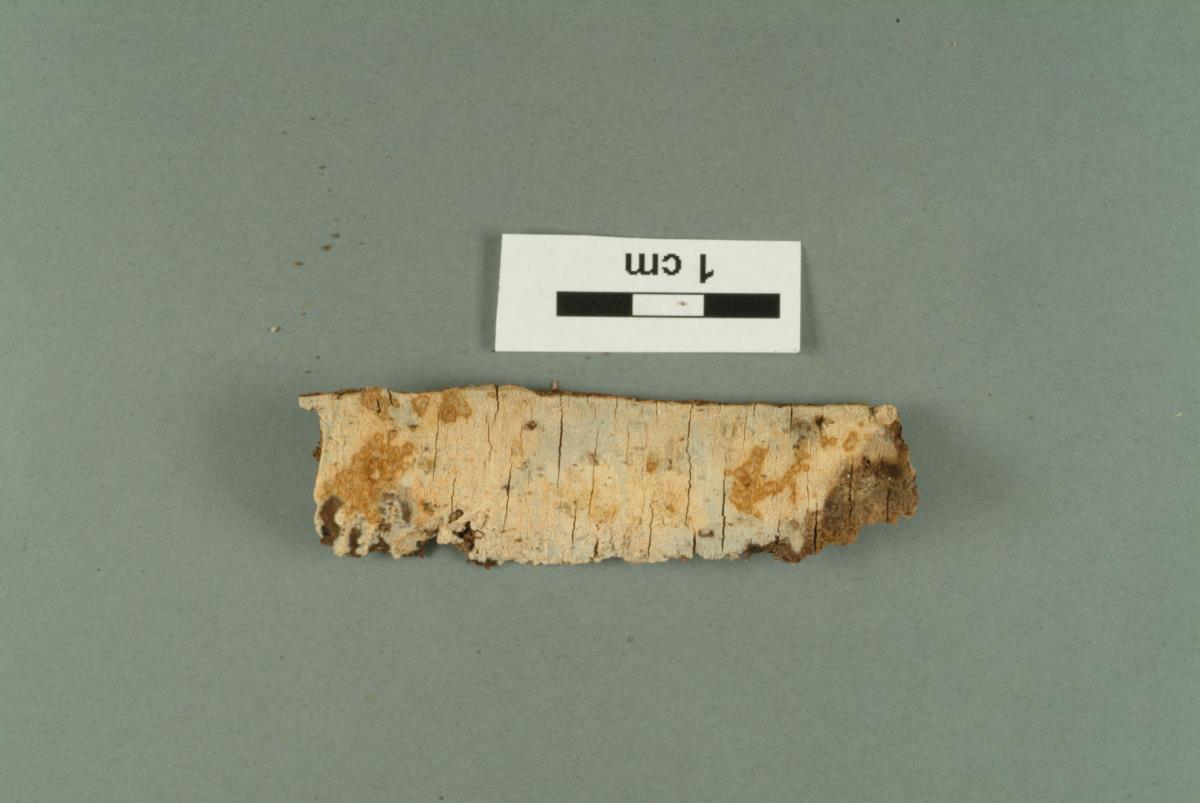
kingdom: Fungi
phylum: Basidiomycota
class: Agaricomycetes
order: Russulales
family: Stereaceae
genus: Aleurodiscus
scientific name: Aleurodiscus
